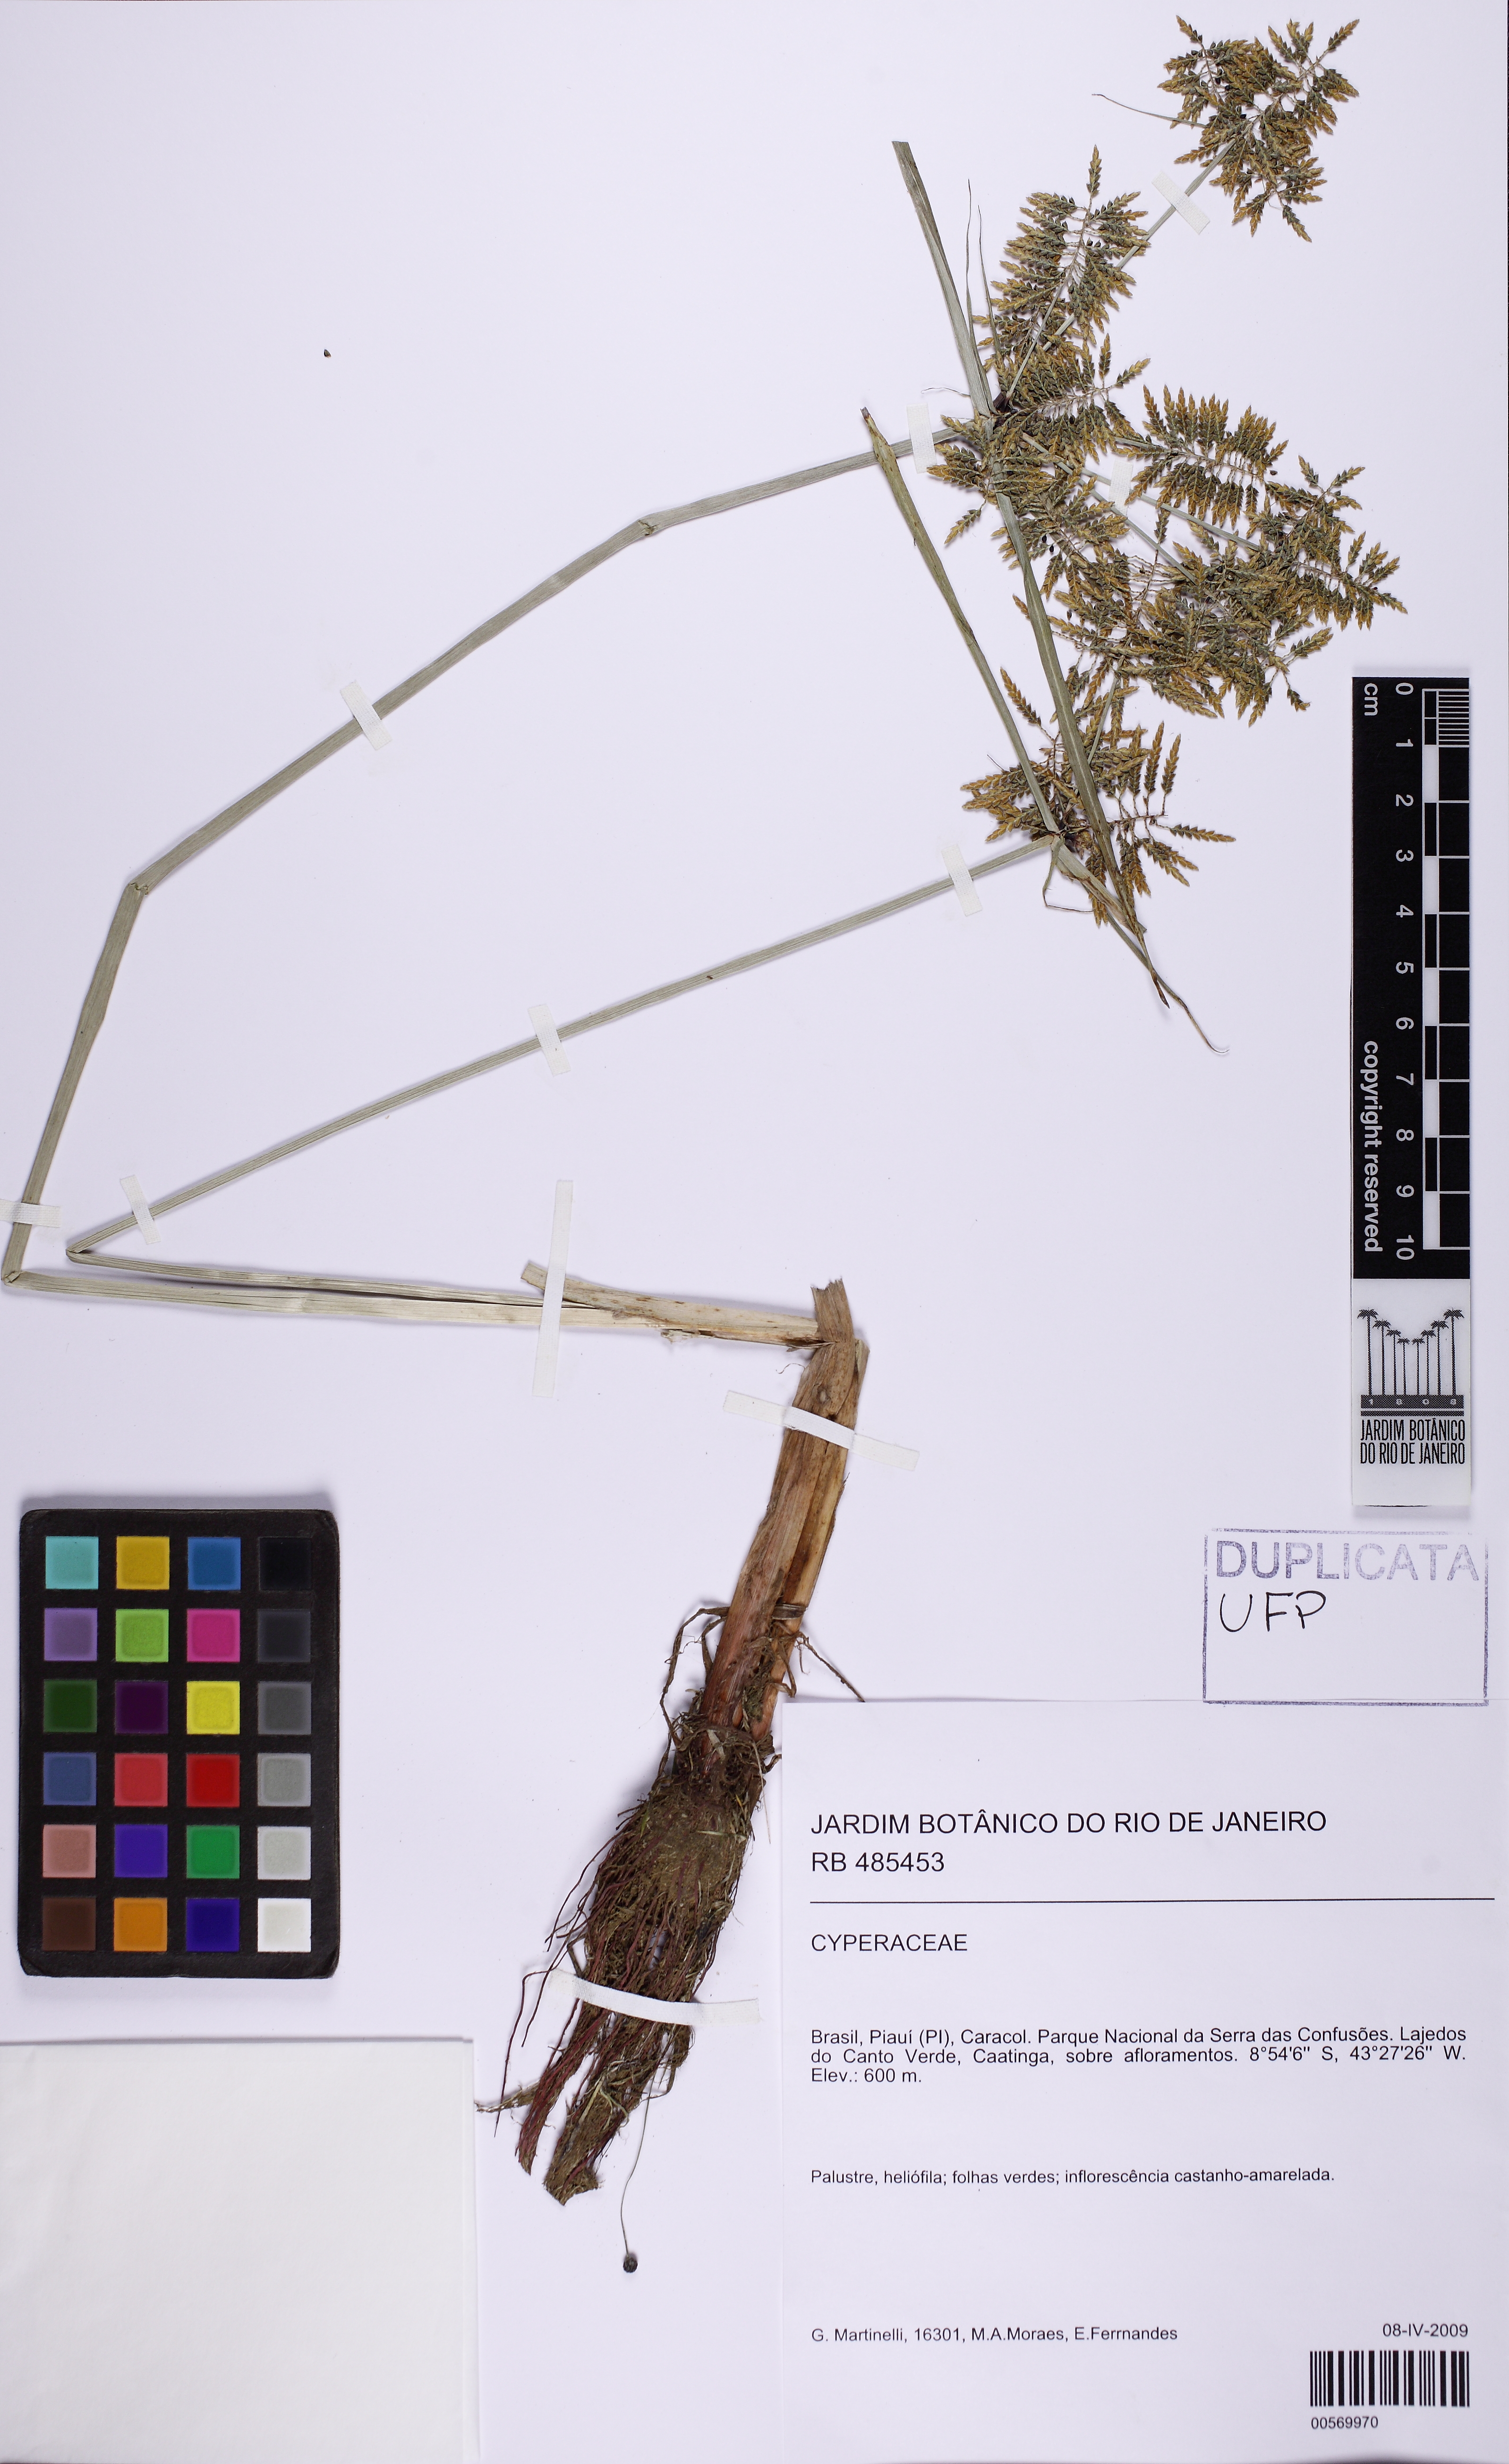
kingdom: Plantae
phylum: Tracheophyta
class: Liliopsida
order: Poales
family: Cyperaceae
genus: Cyperus
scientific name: Cyperus macrostachyos
